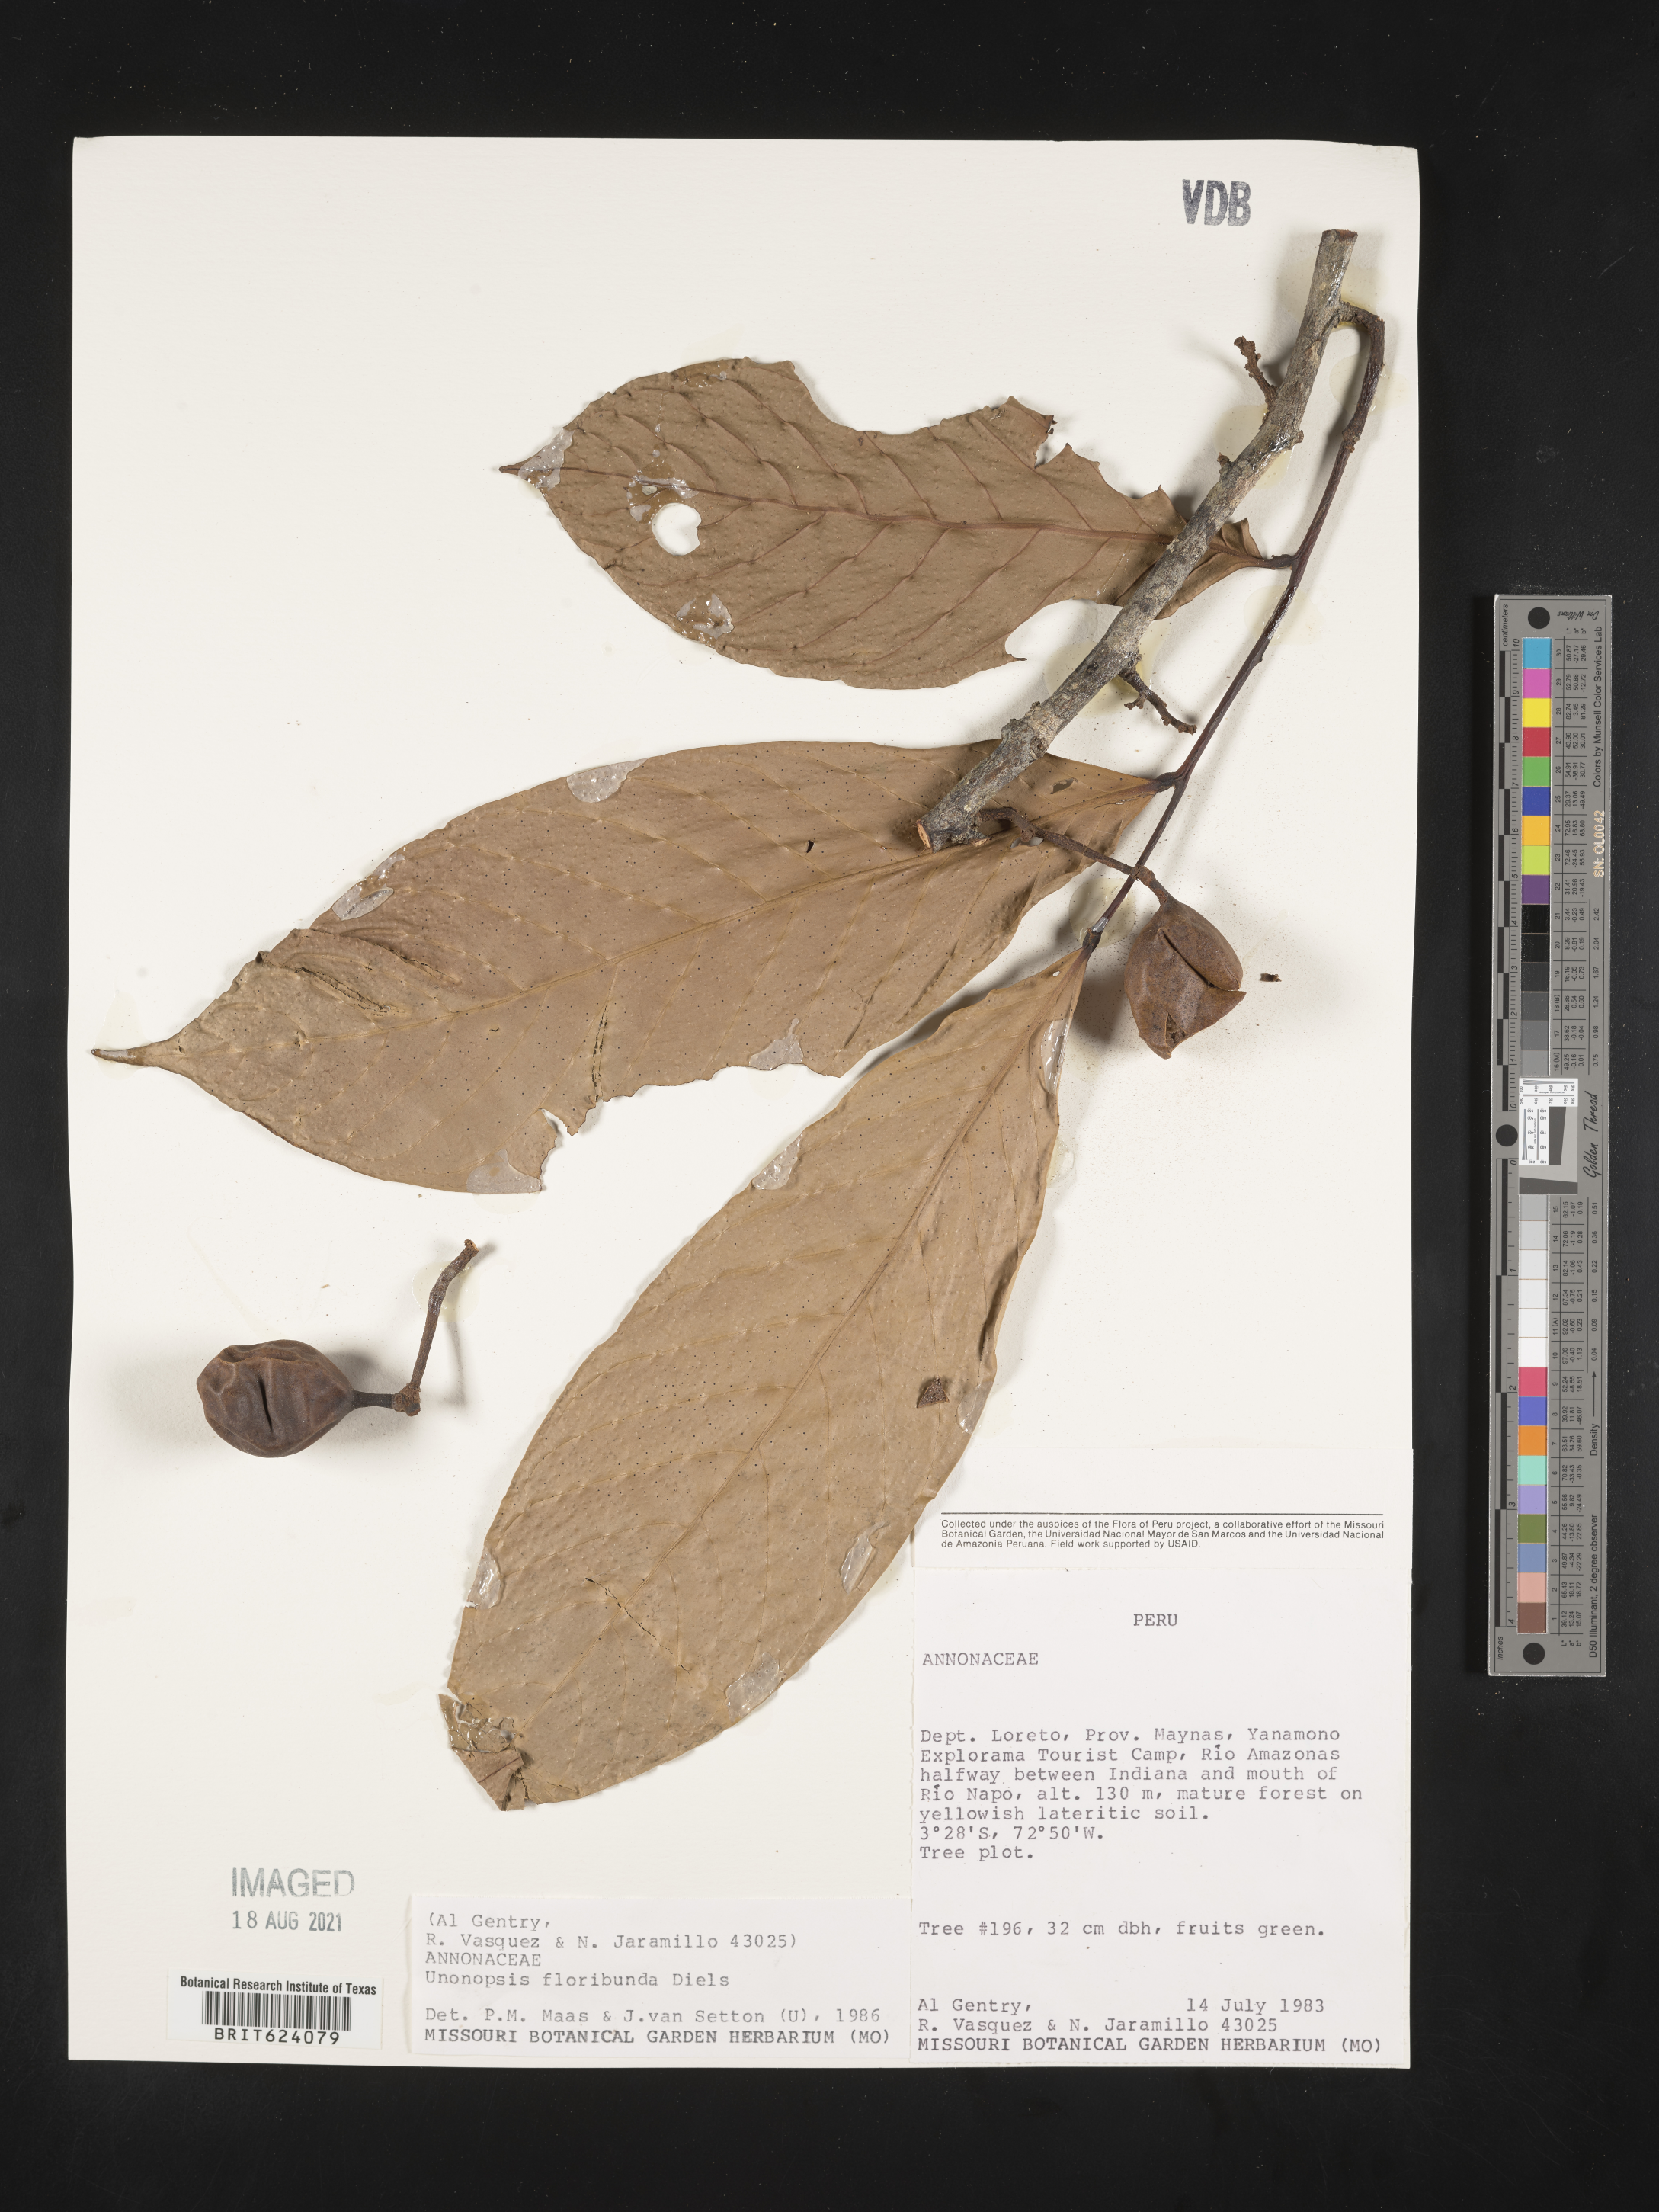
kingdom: Plantae
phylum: Tracheophyta
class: Magnoliopsida
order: Magnoliales
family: Annonaceae
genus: Unonopsis
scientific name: Unonopsis floribunda
